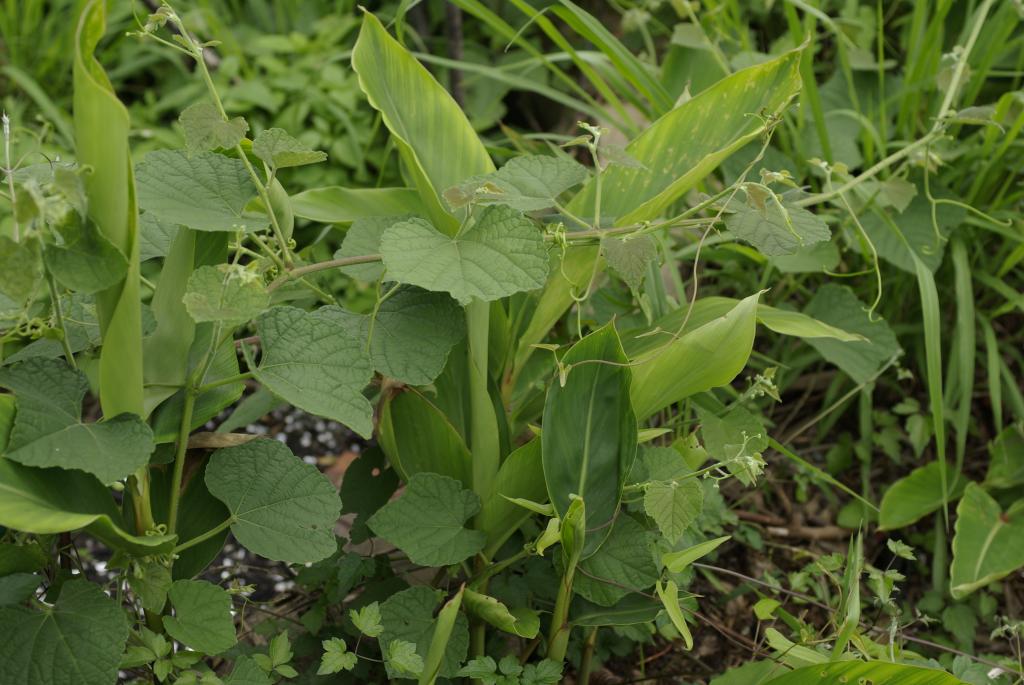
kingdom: Plantae
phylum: Tracheophyta
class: Liliopsida
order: Zingiberales
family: Zingiberaceae
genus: Alpinia
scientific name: Alpinia zerumbet
